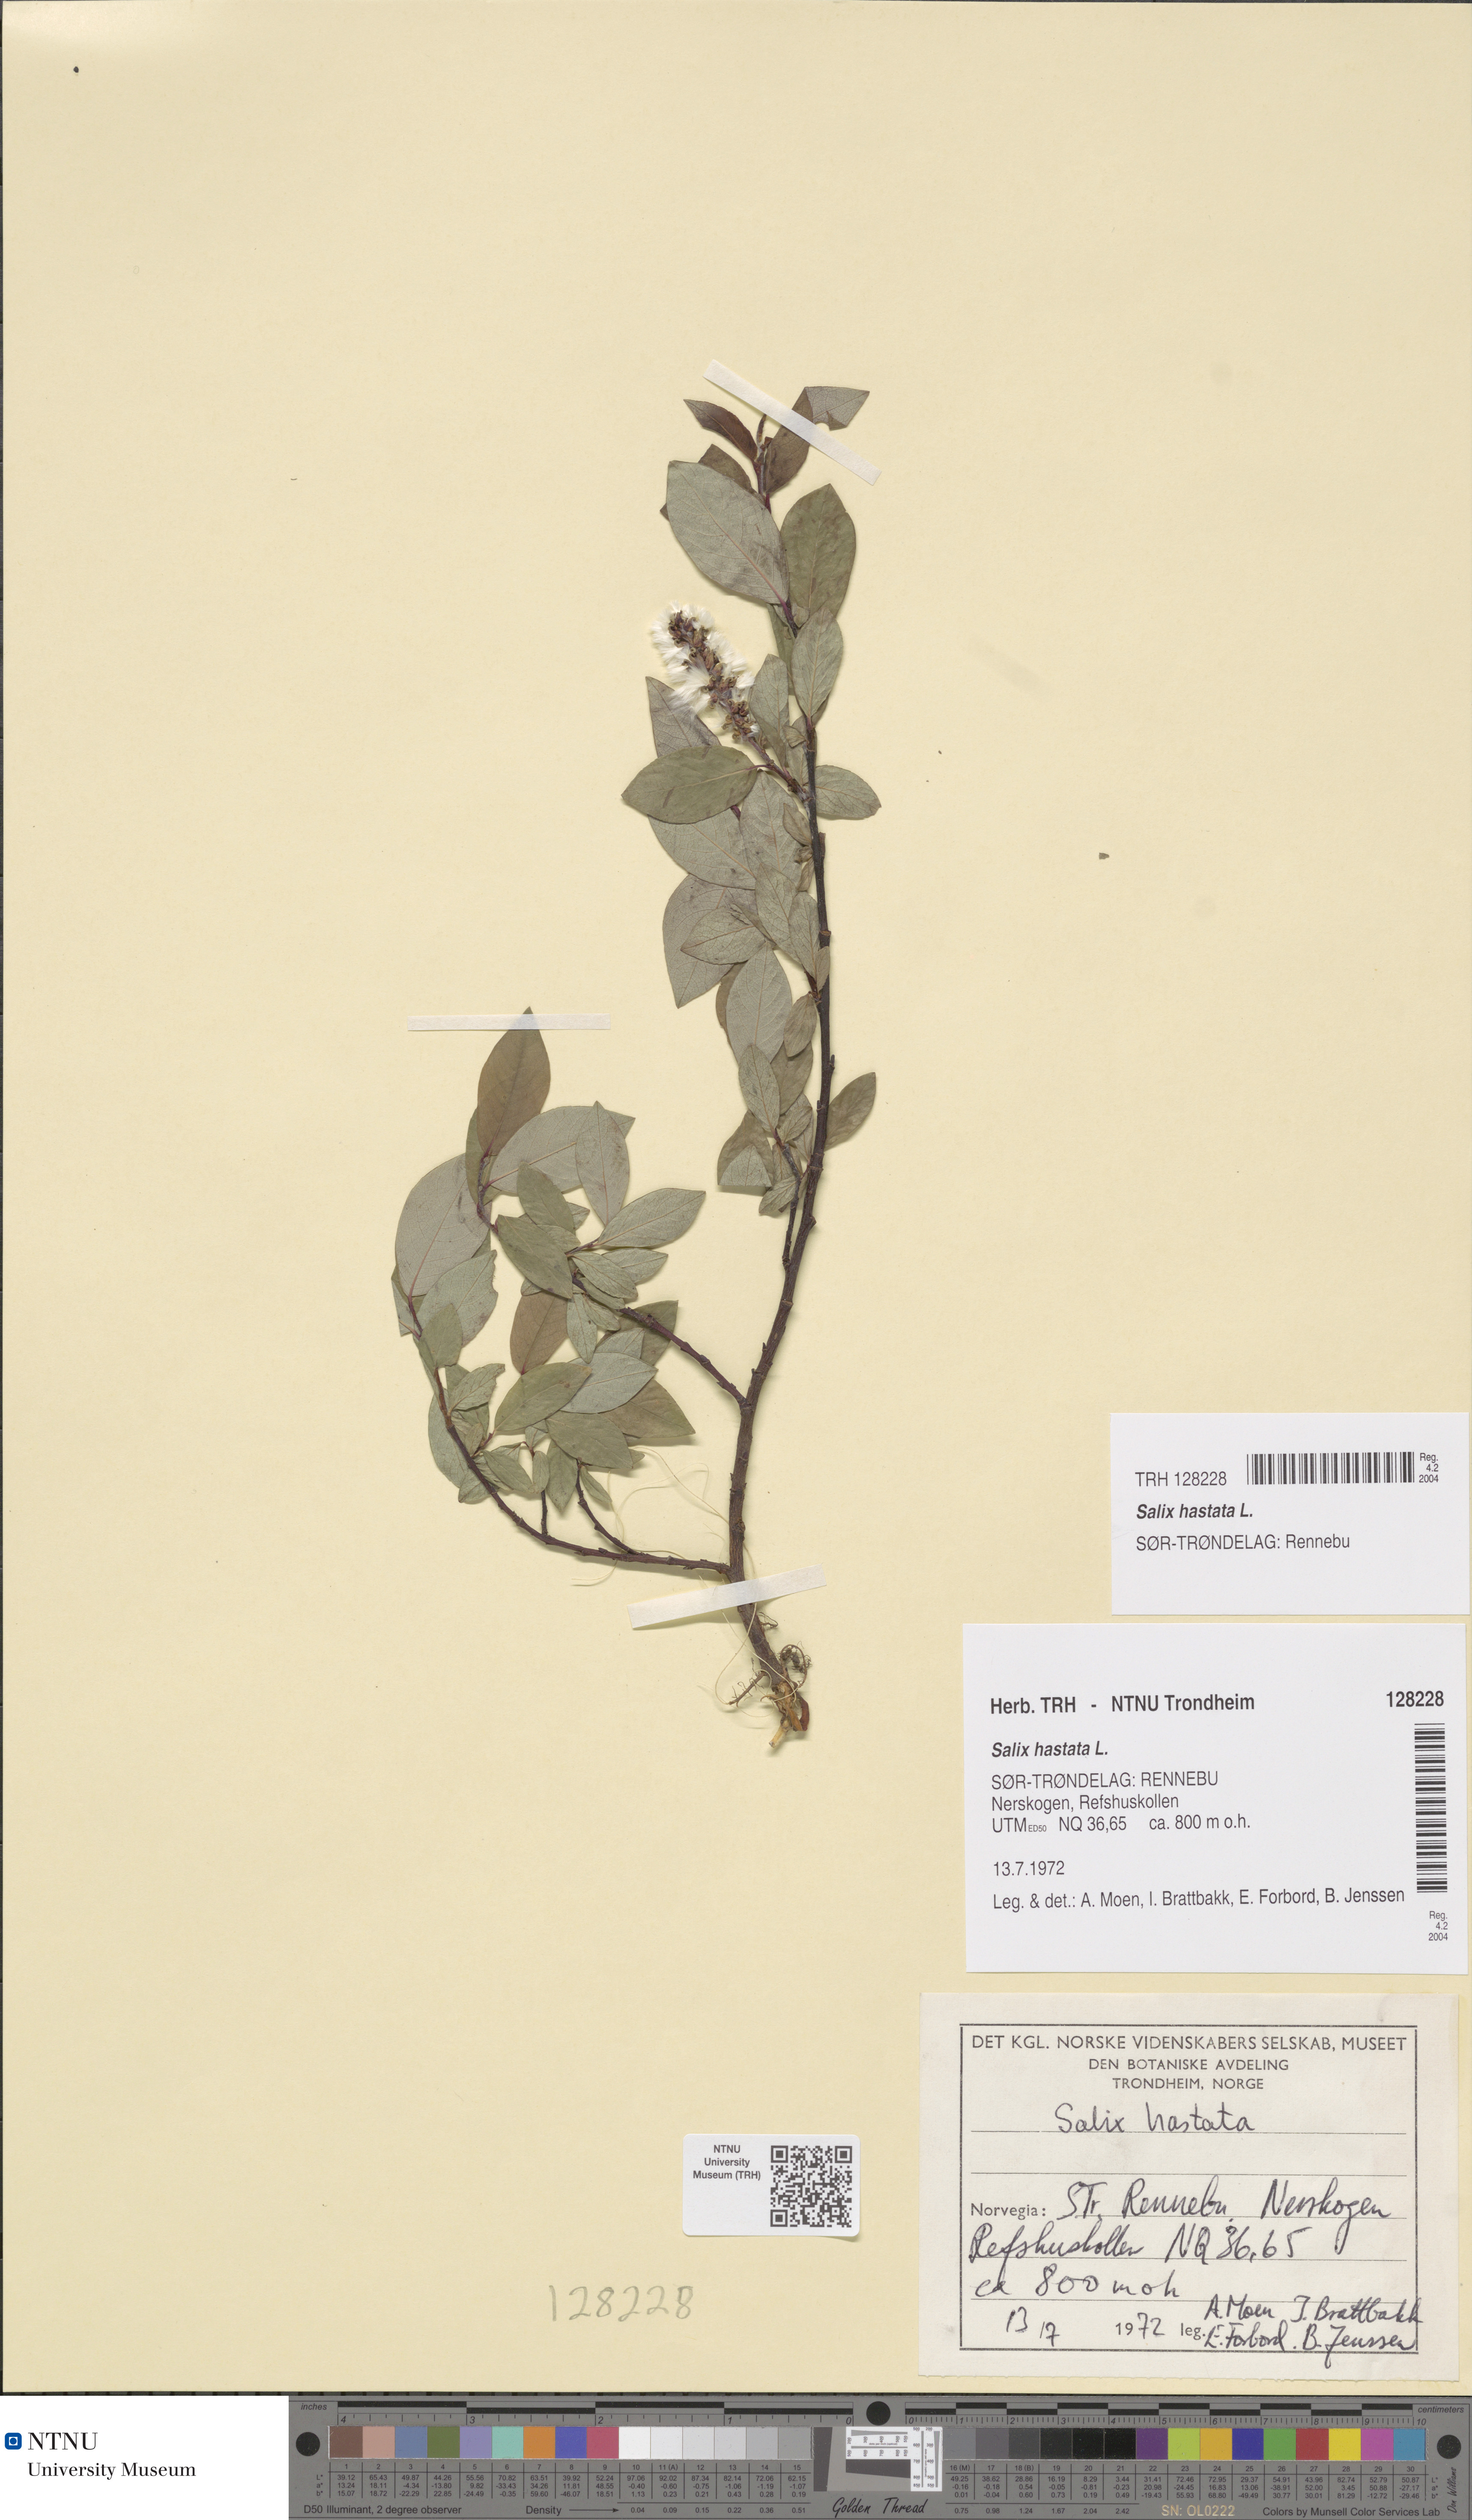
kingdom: Plantae
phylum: Tracheophyta
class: Magnoliopsida
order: Malpighiales
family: Salicaceae
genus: Salix
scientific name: Salix hastata
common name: Halberd willow
